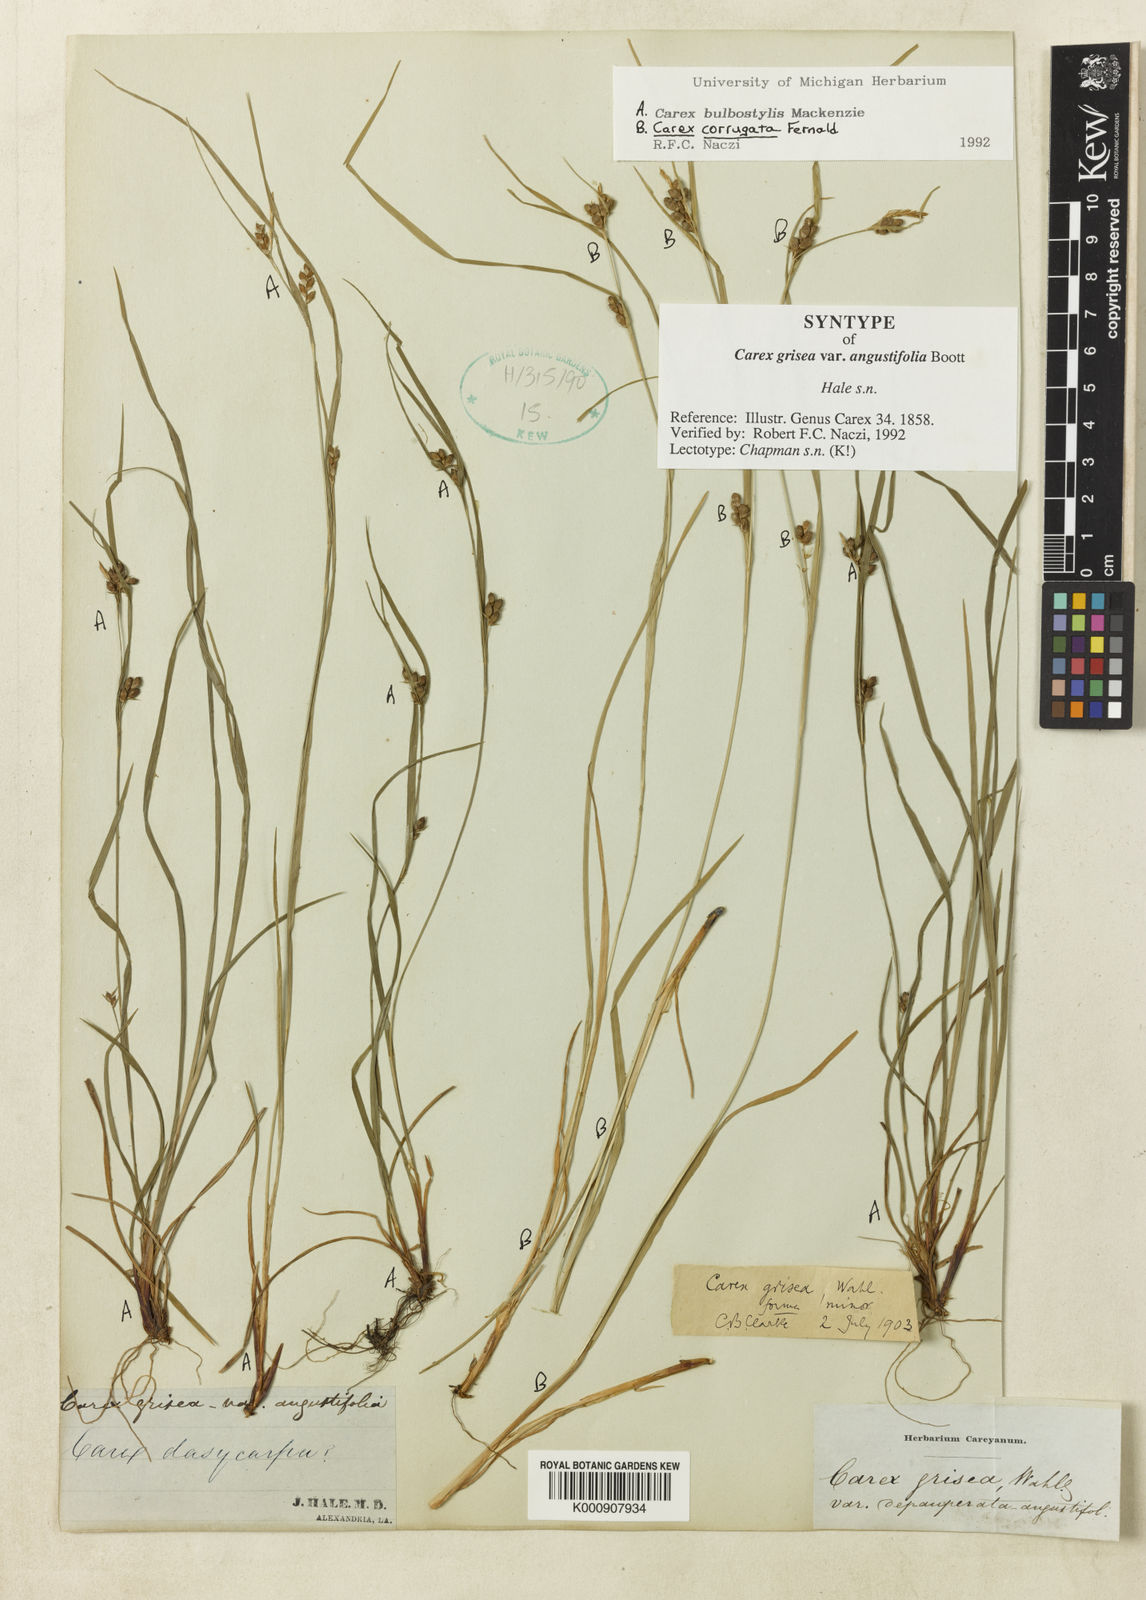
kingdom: Plantae
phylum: Tracheophyta
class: Liliopsida
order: Poales
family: Cyperaceae
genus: Carex
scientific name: Carex bulbostylis
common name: Eastern narrowleaf sedge
